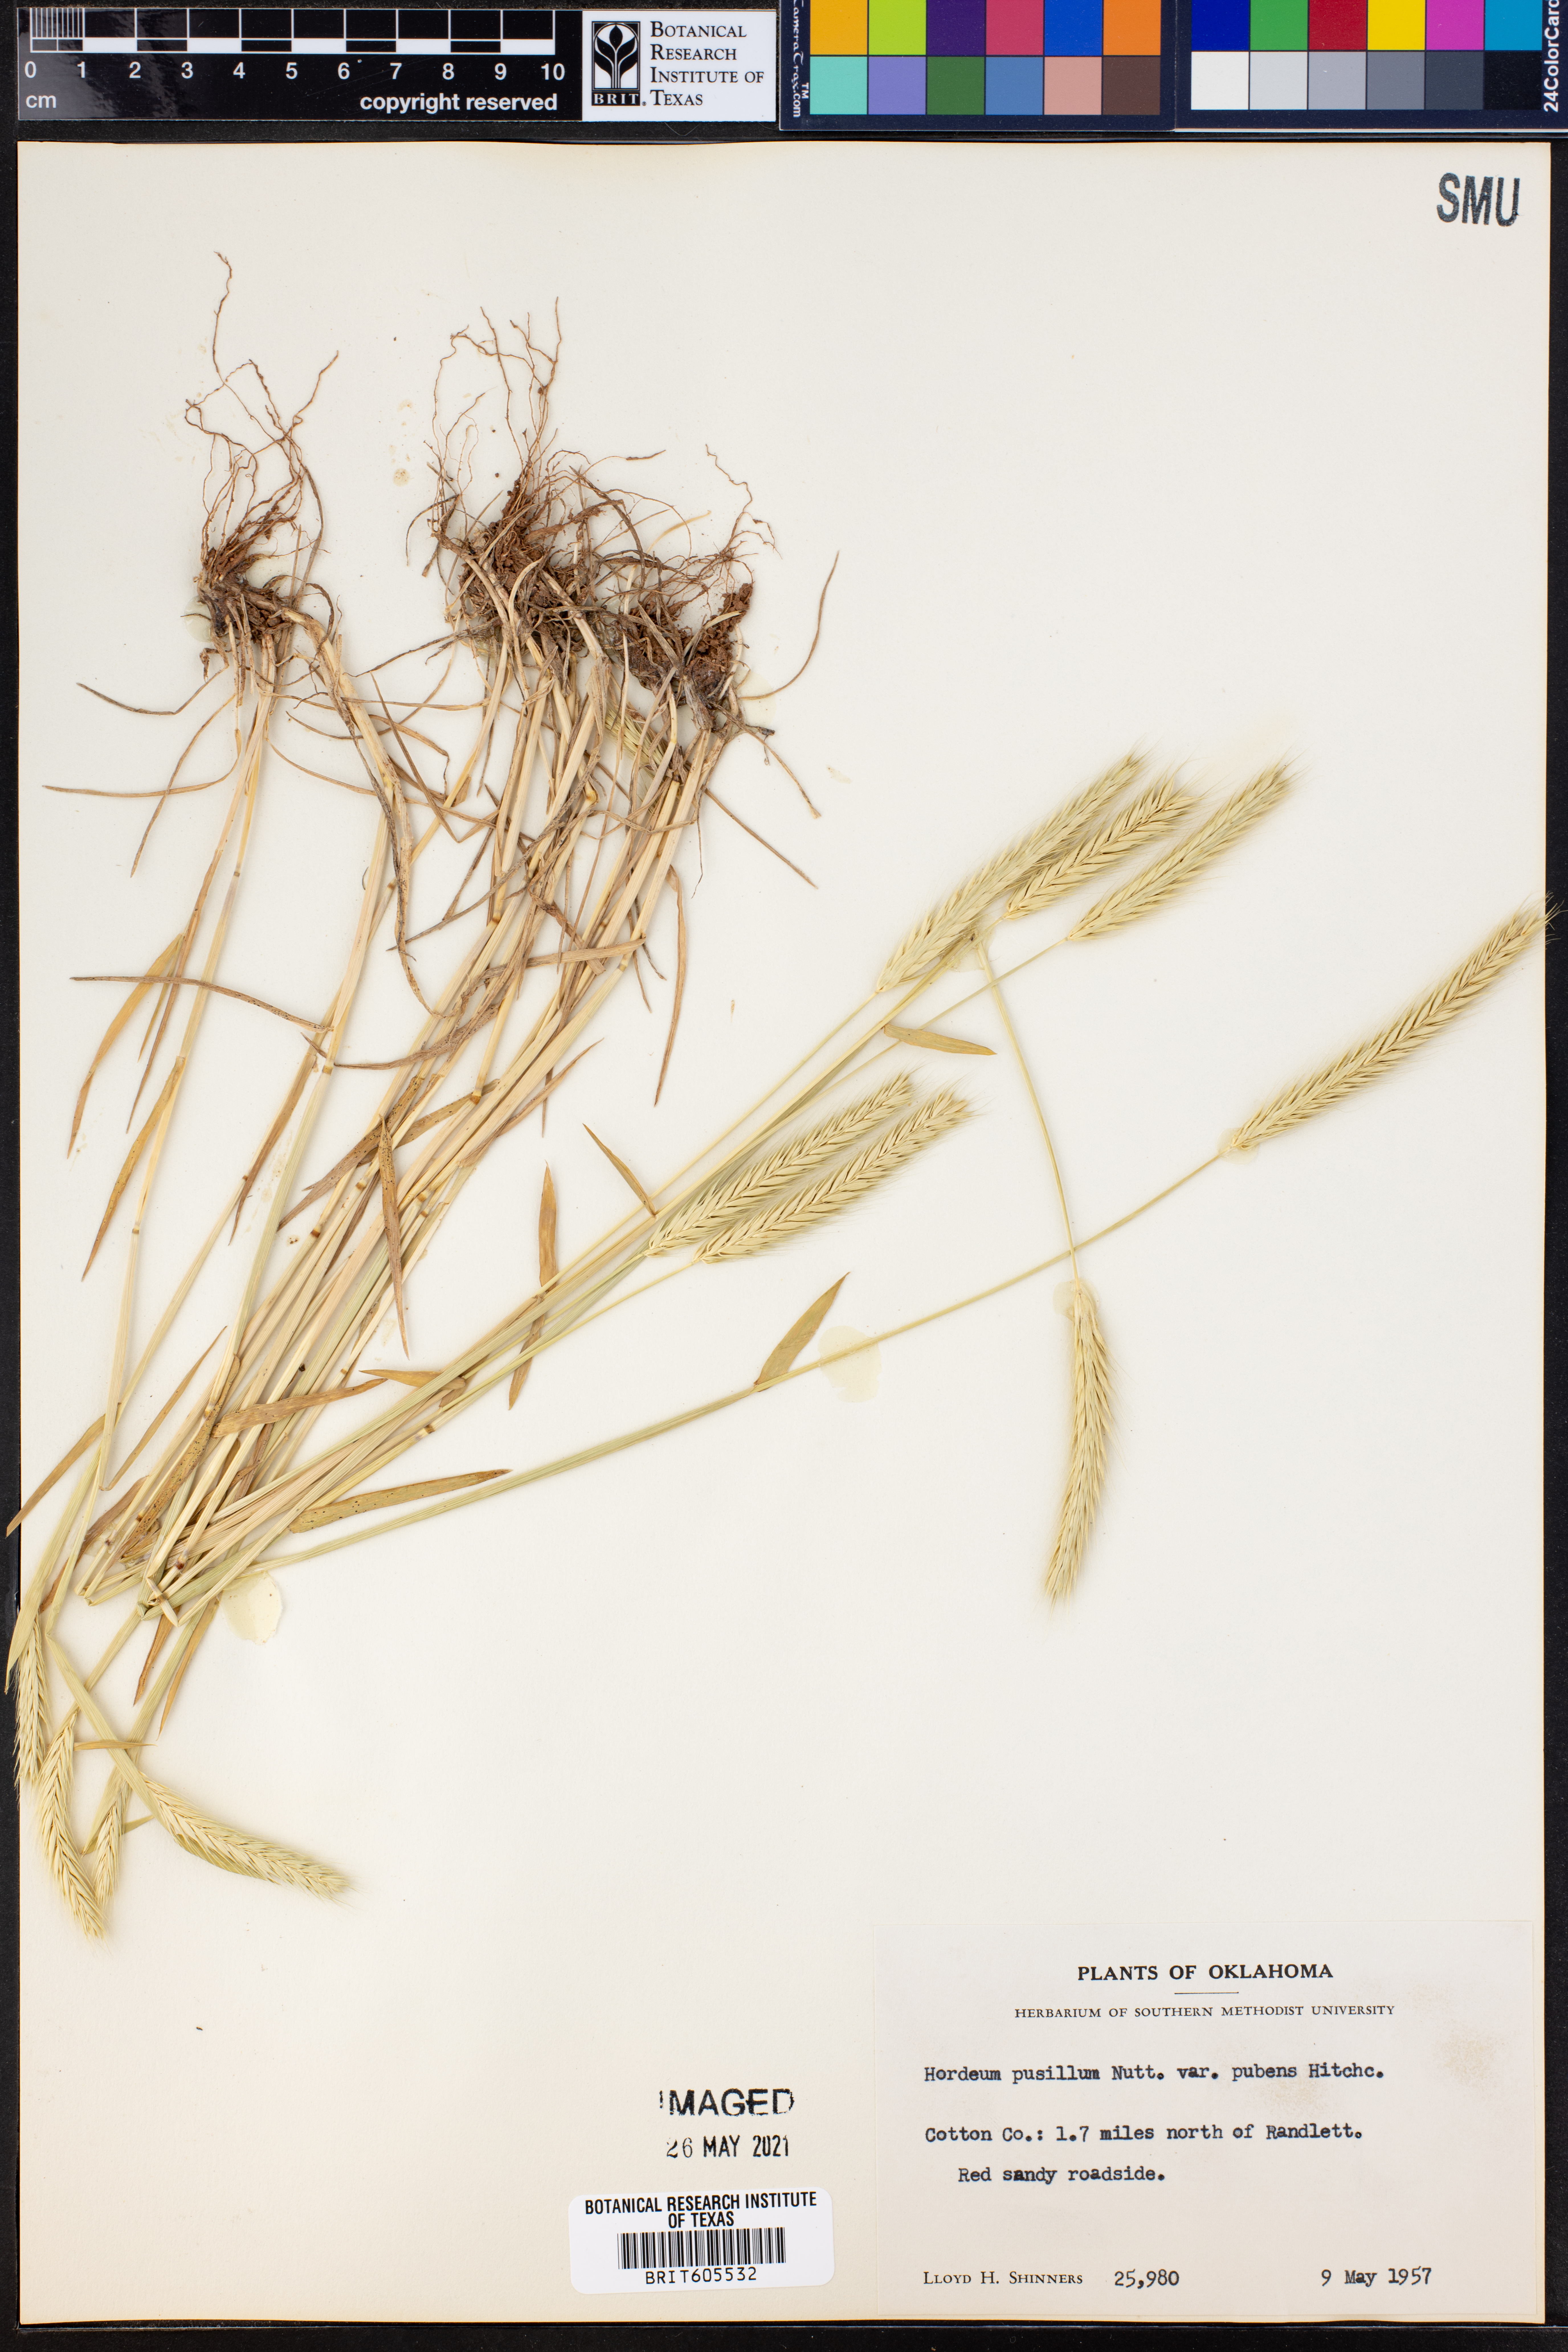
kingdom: Plantae
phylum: Tracheophyta
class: Liliopsida
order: Poales
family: Poaceae
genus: Hordeum
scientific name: Hordeum pusillum
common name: Little barley
